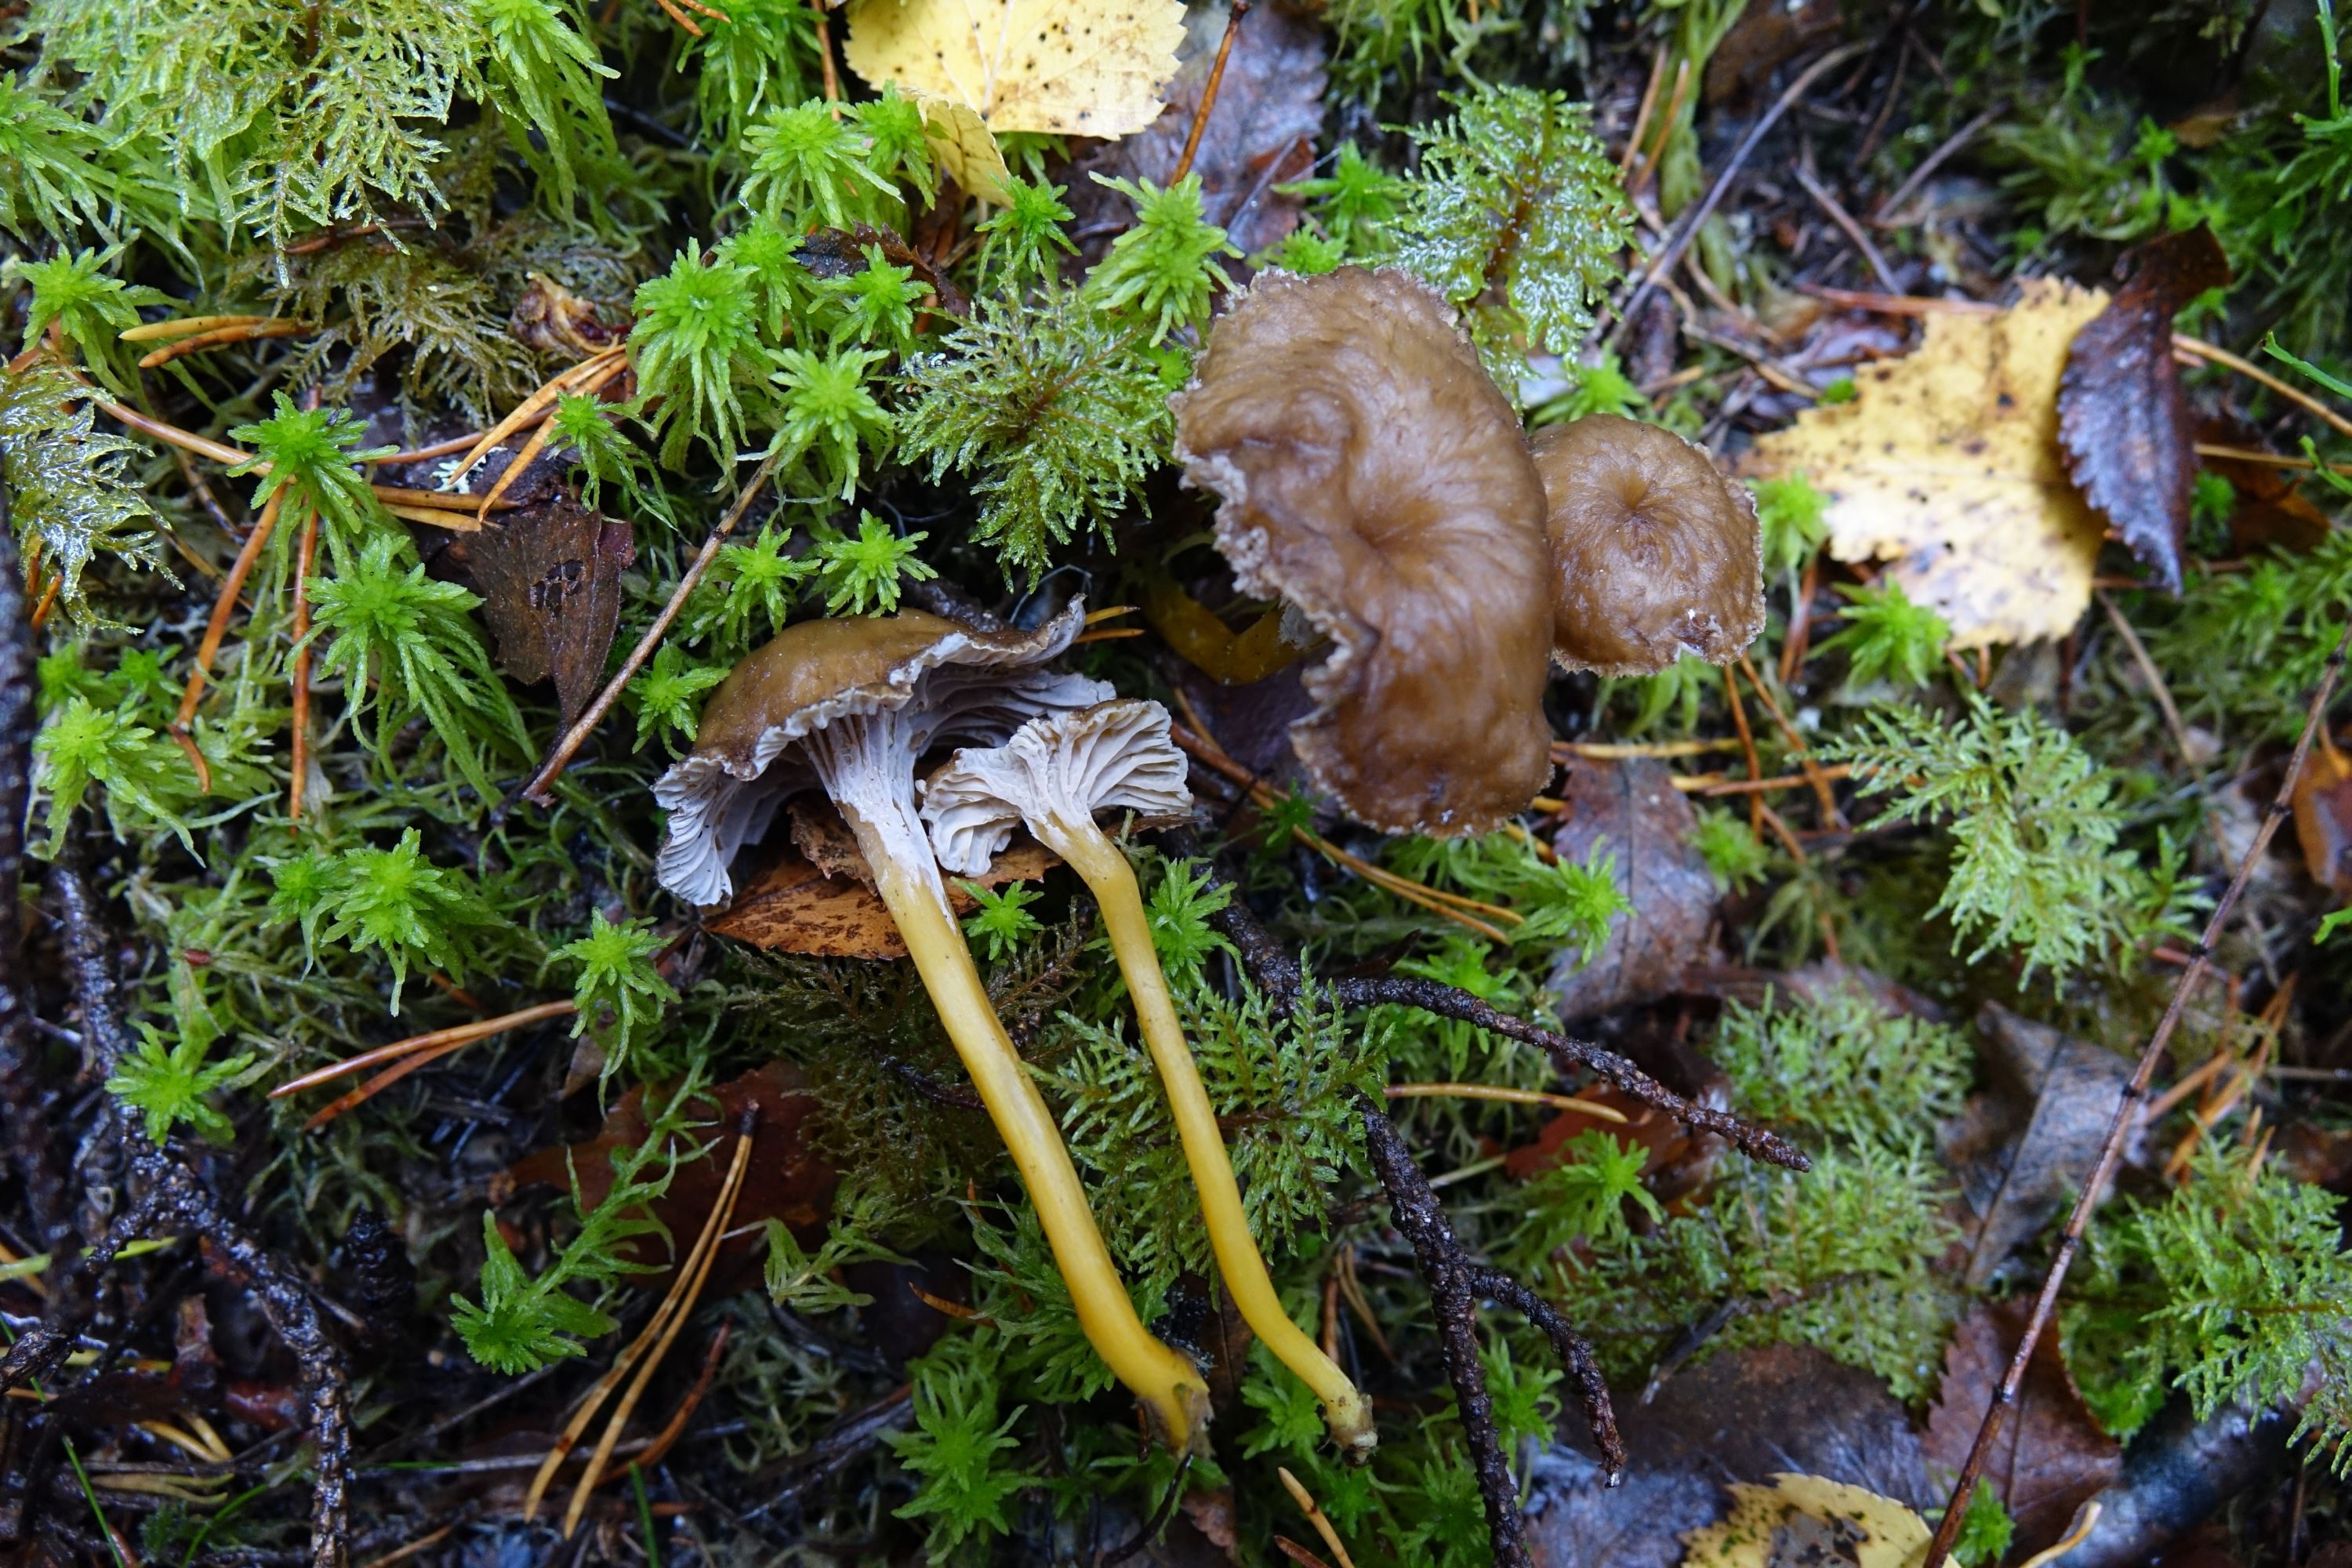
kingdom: Fungi
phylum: Basidiomycota
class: Agaricomycetes
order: Cantharellales
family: Hydnaceae
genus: Craterellus
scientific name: Craterellus tubaeformis
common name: Yellowfoot
